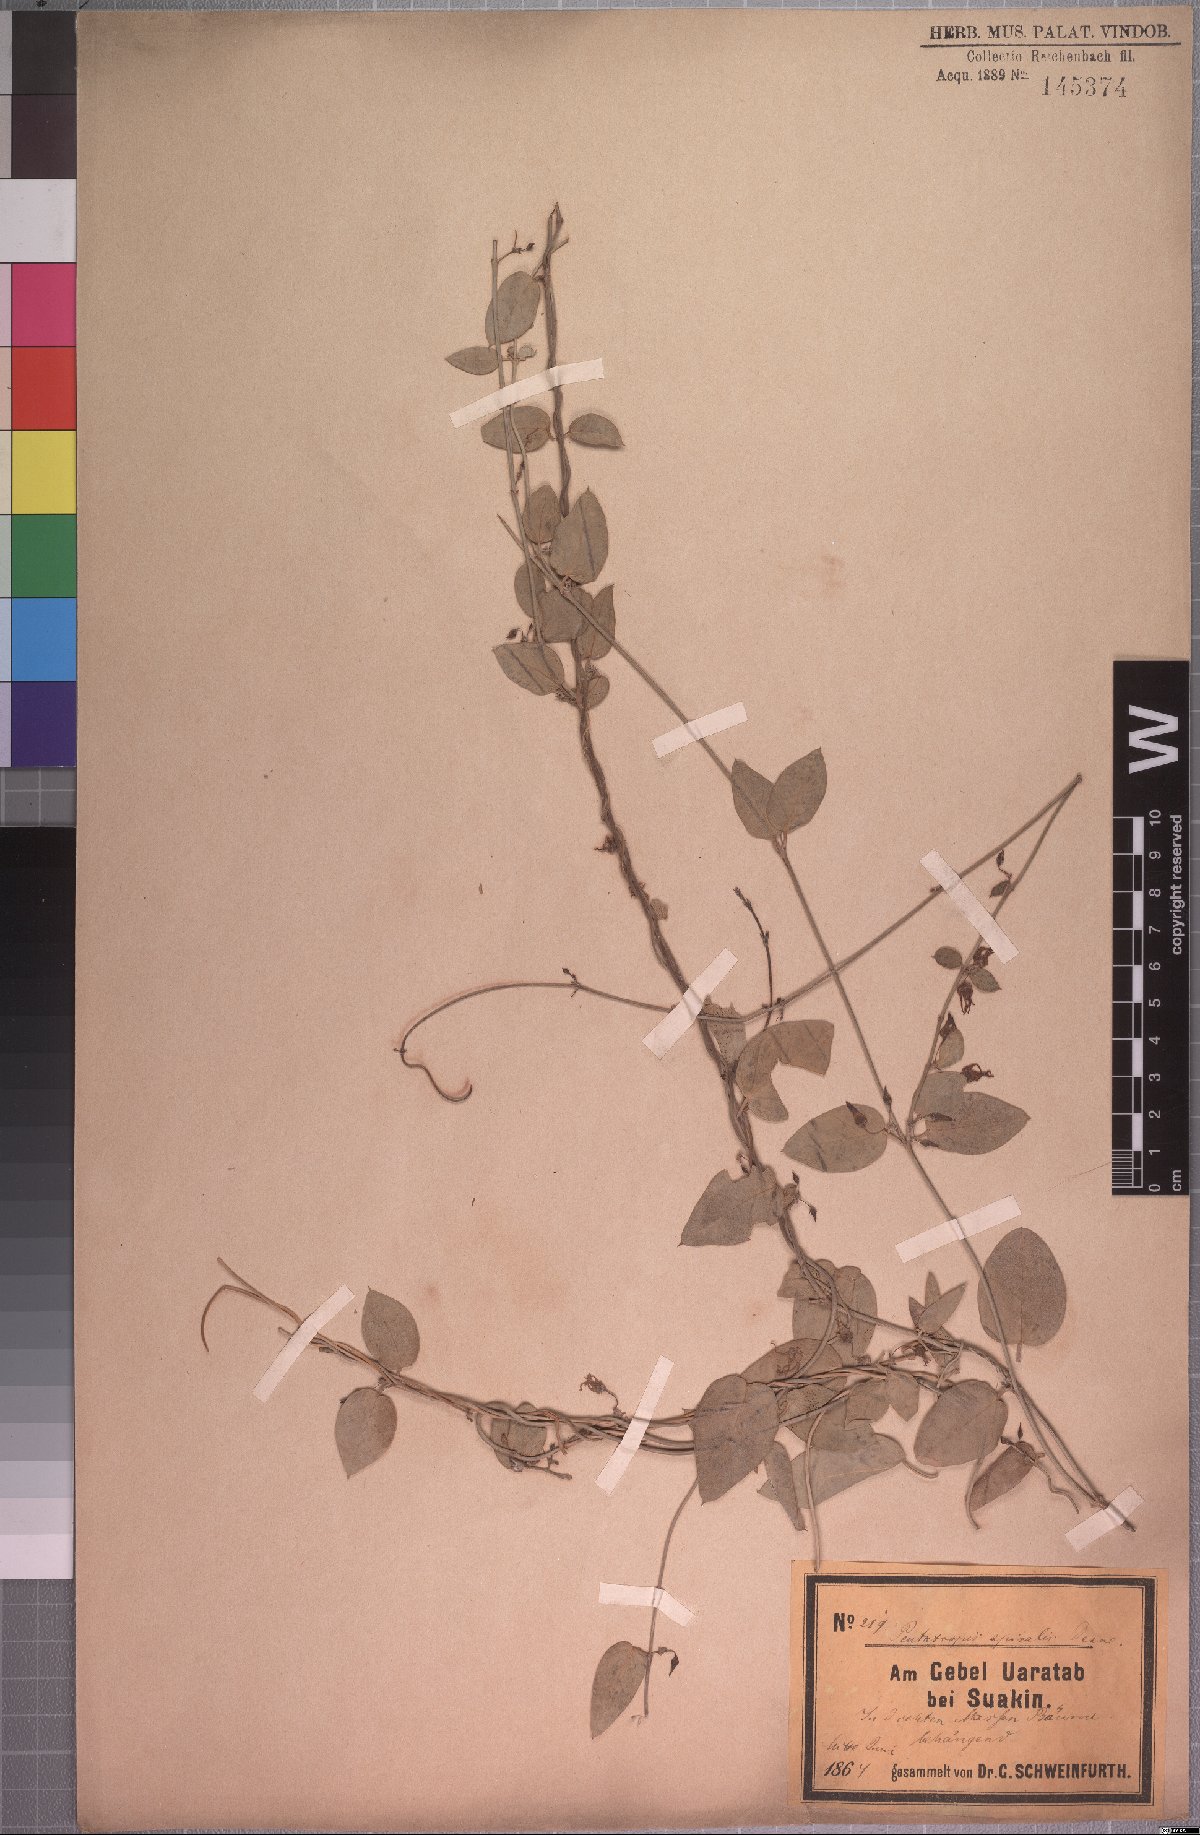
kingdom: Plantae
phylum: Tracheophyta
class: Magnoliopsida
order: Gentianales
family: Apocynaceae
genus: Pentatropis
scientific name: Pentatropis nivalis
